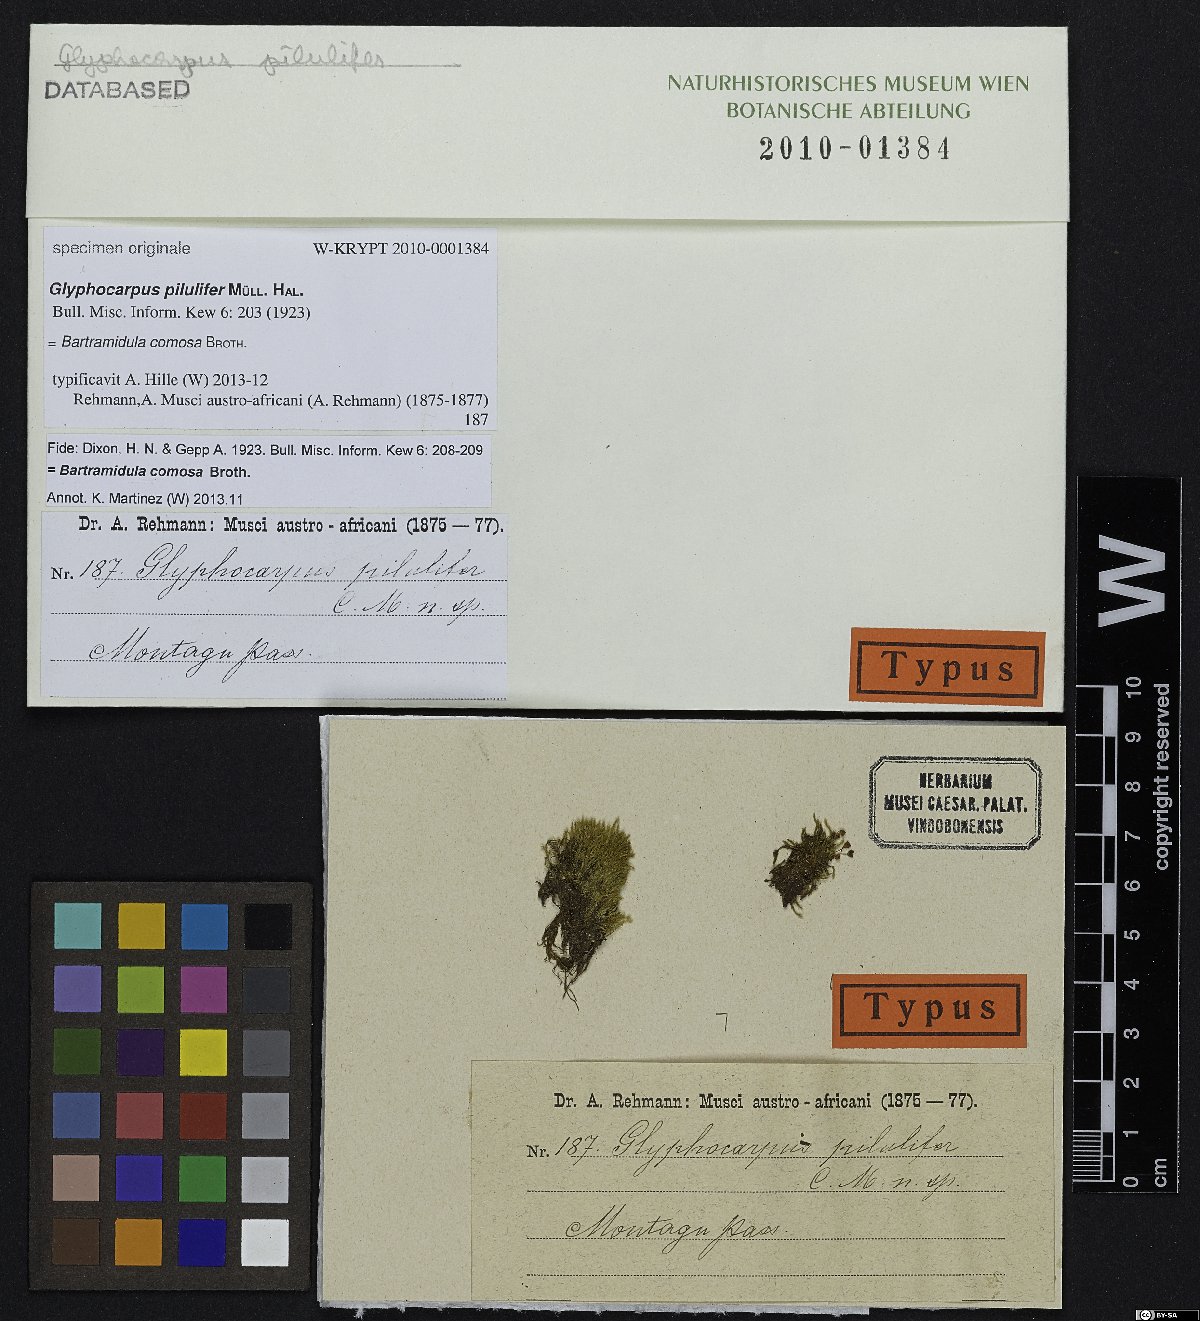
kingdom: Plantae
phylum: Bryophyta
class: Bryopsida
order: Bartramiales
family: Bartramiaceae
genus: Bartramia
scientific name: Bartramia
